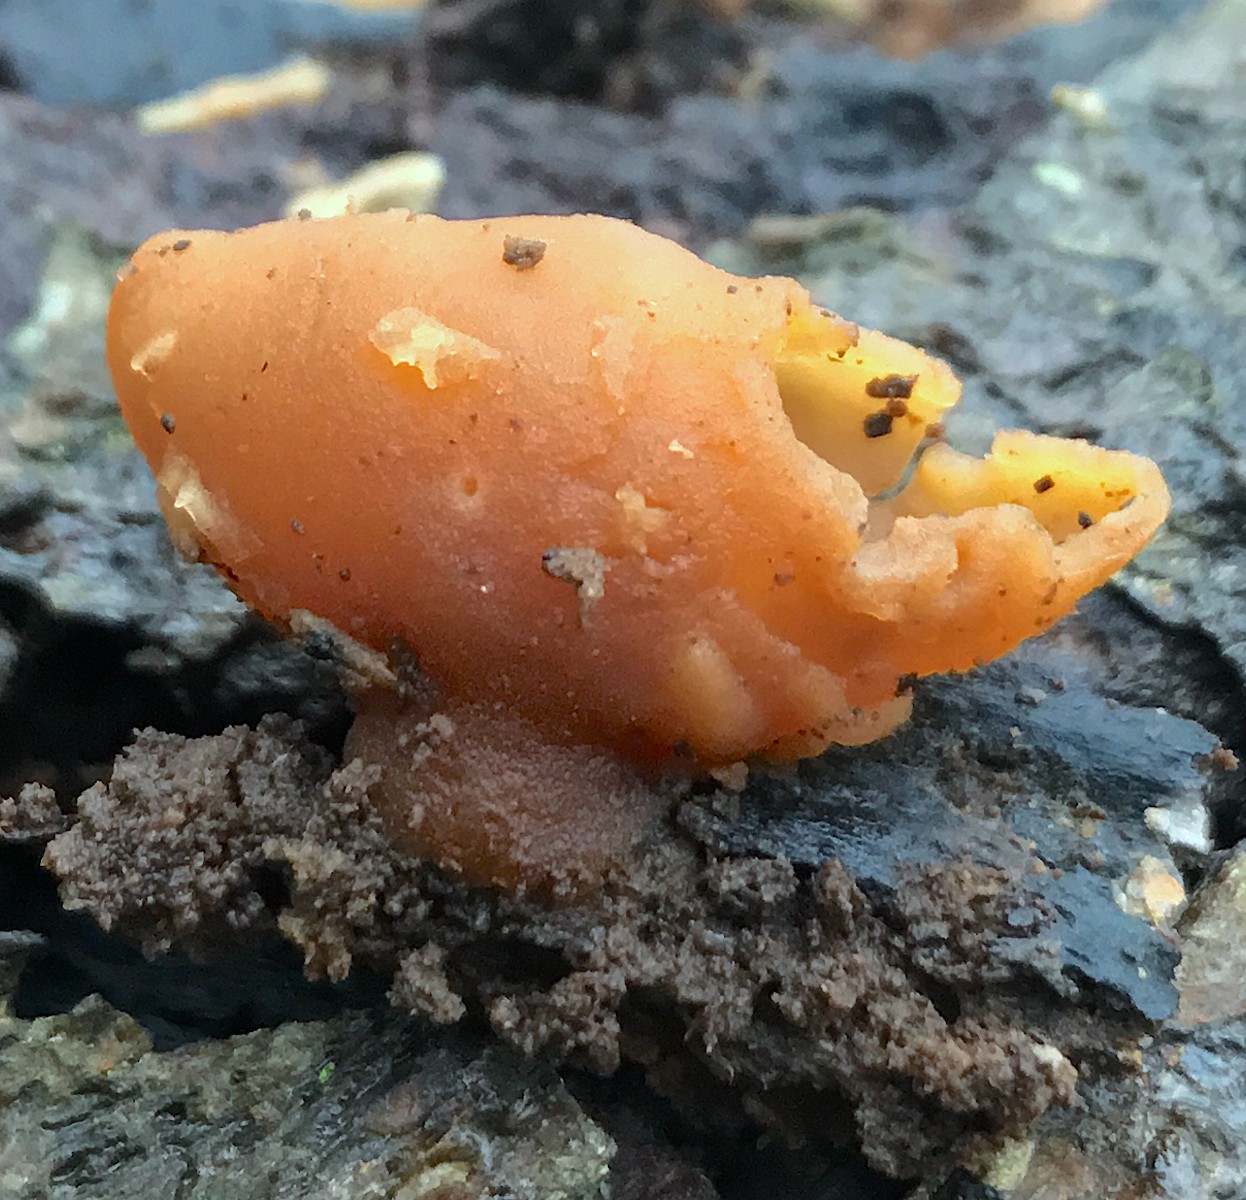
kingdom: Fungi
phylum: Ascomycota
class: Pezizomycetes
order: Pezizales
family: Pezizaceae
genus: Peziza
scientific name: Peziza varia
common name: Ved-bægersvamp
